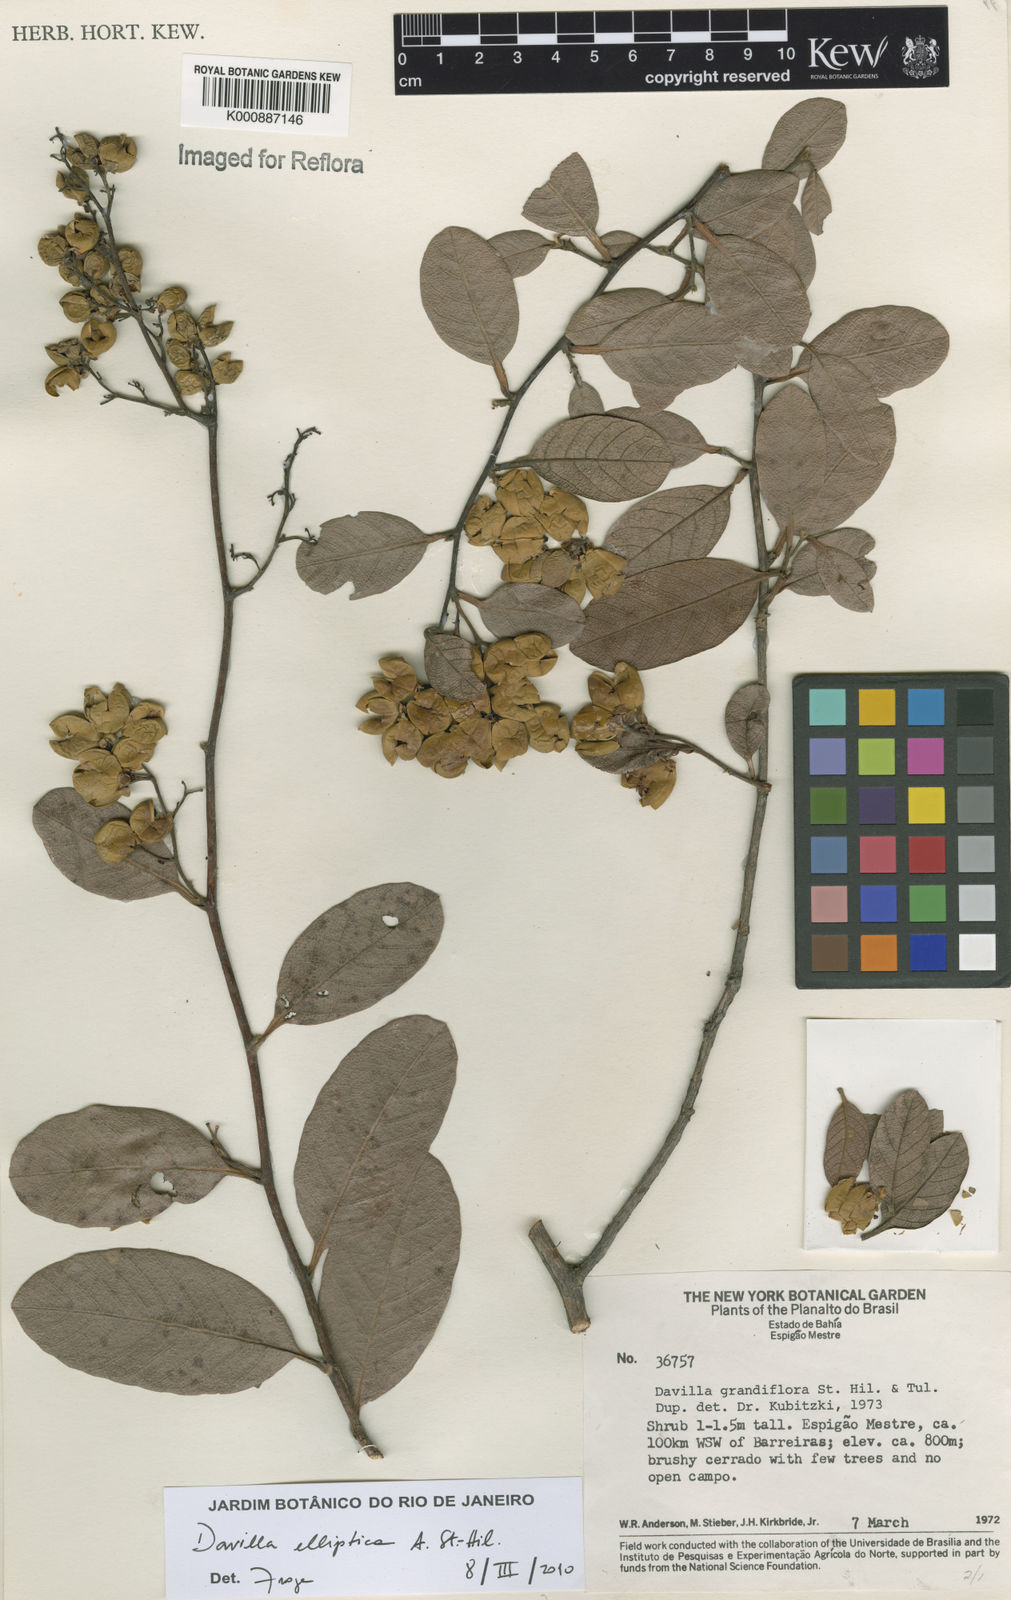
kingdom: Plantae
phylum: Tracheophyta
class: Magnoliopsida
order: Dilleniales
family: Dilleniaceae
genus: Davilla
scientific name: Davilla elliptica
